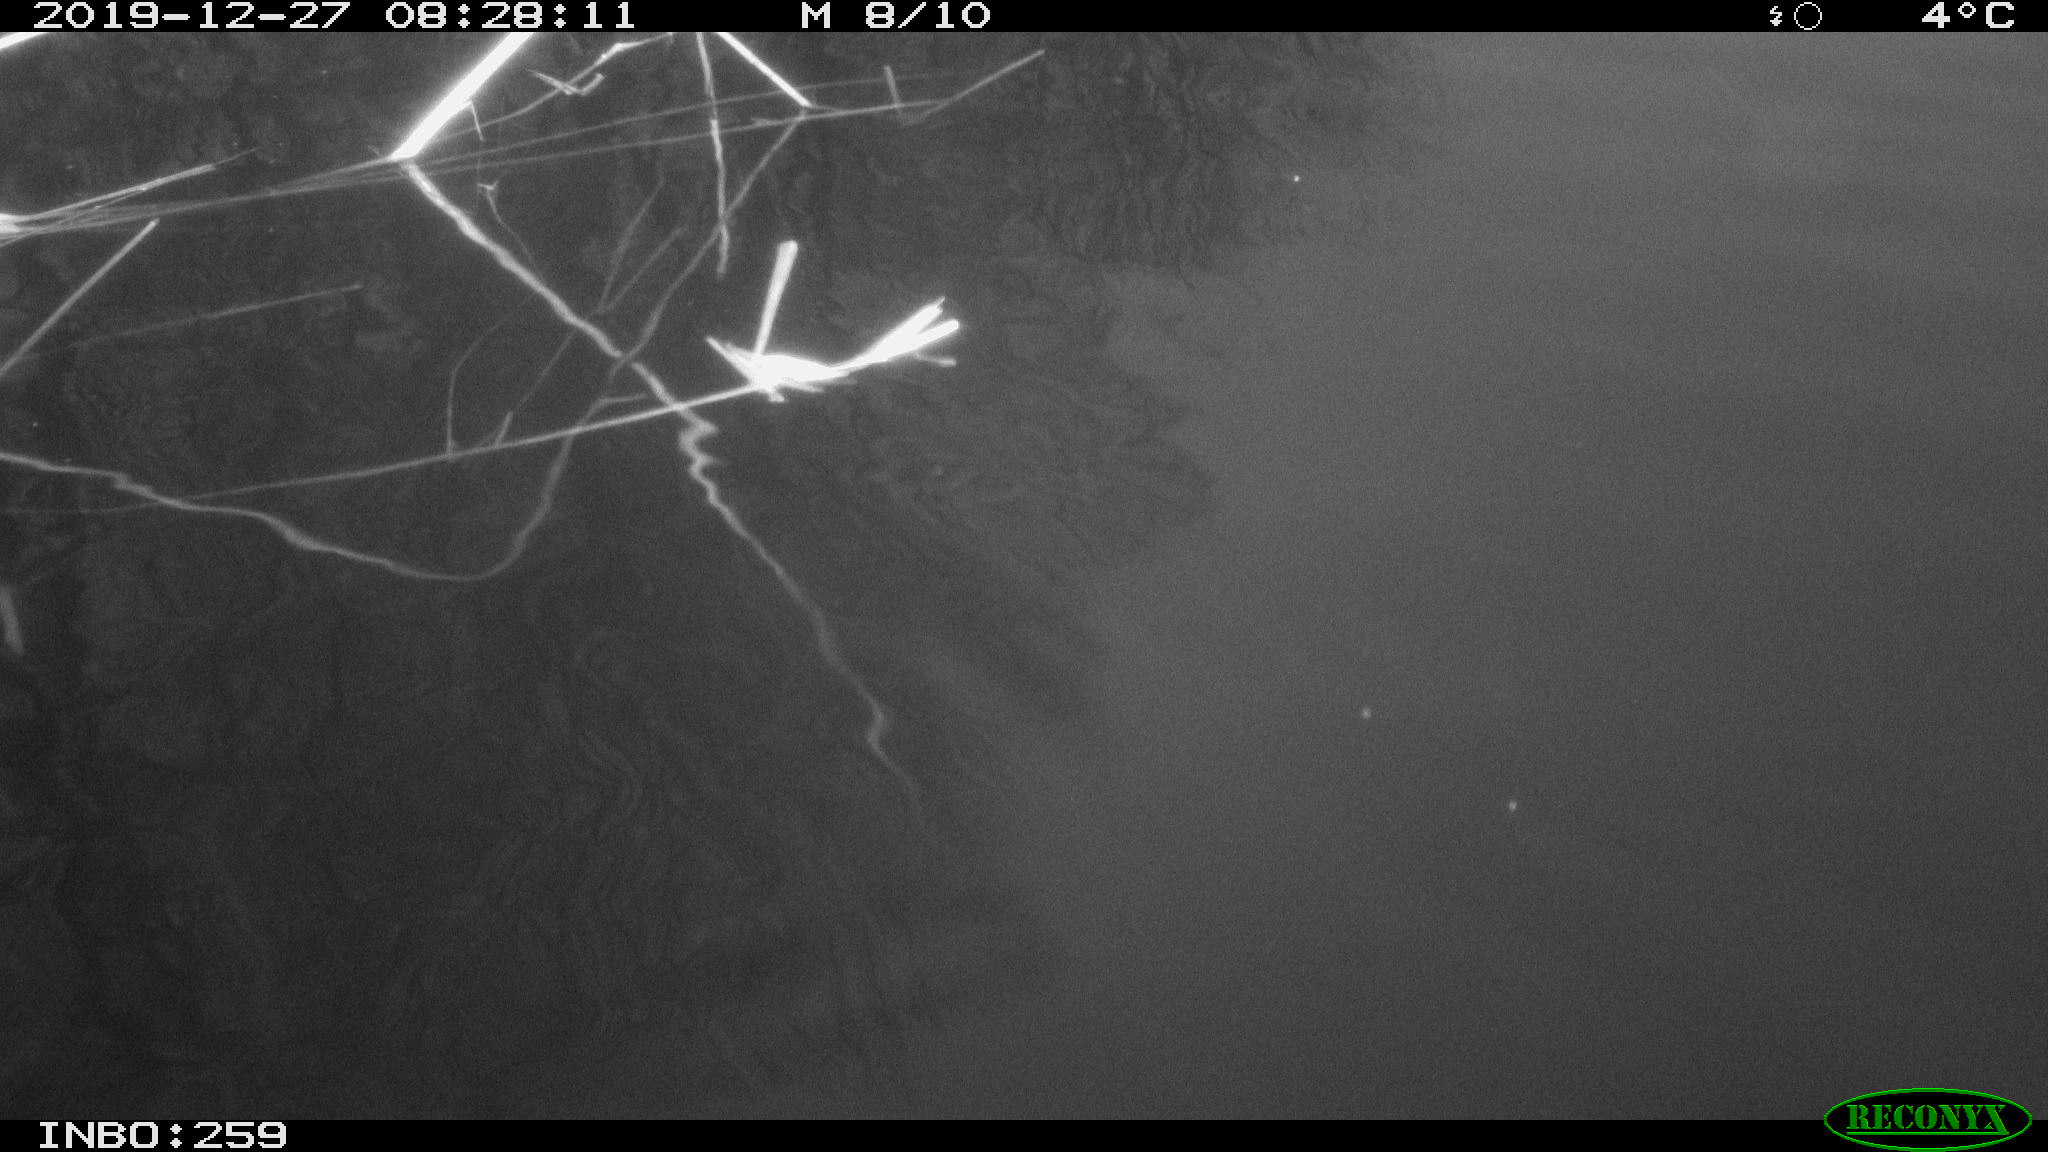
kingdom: Animalia
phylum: Chordata
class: Aves
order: Gruiformes
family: Rallidae
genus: Gallinula
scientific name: Gallinula chloropus
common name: Common moorhen
